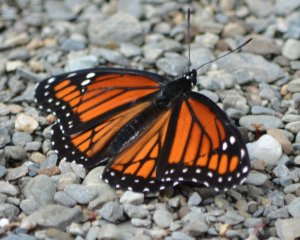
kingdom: Animalia
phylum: Arthropoda
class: Insecta
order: Lepidoptera
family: Nymphalidae
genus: Limenitis
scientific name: Limenitis archippus
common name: Viceroy
